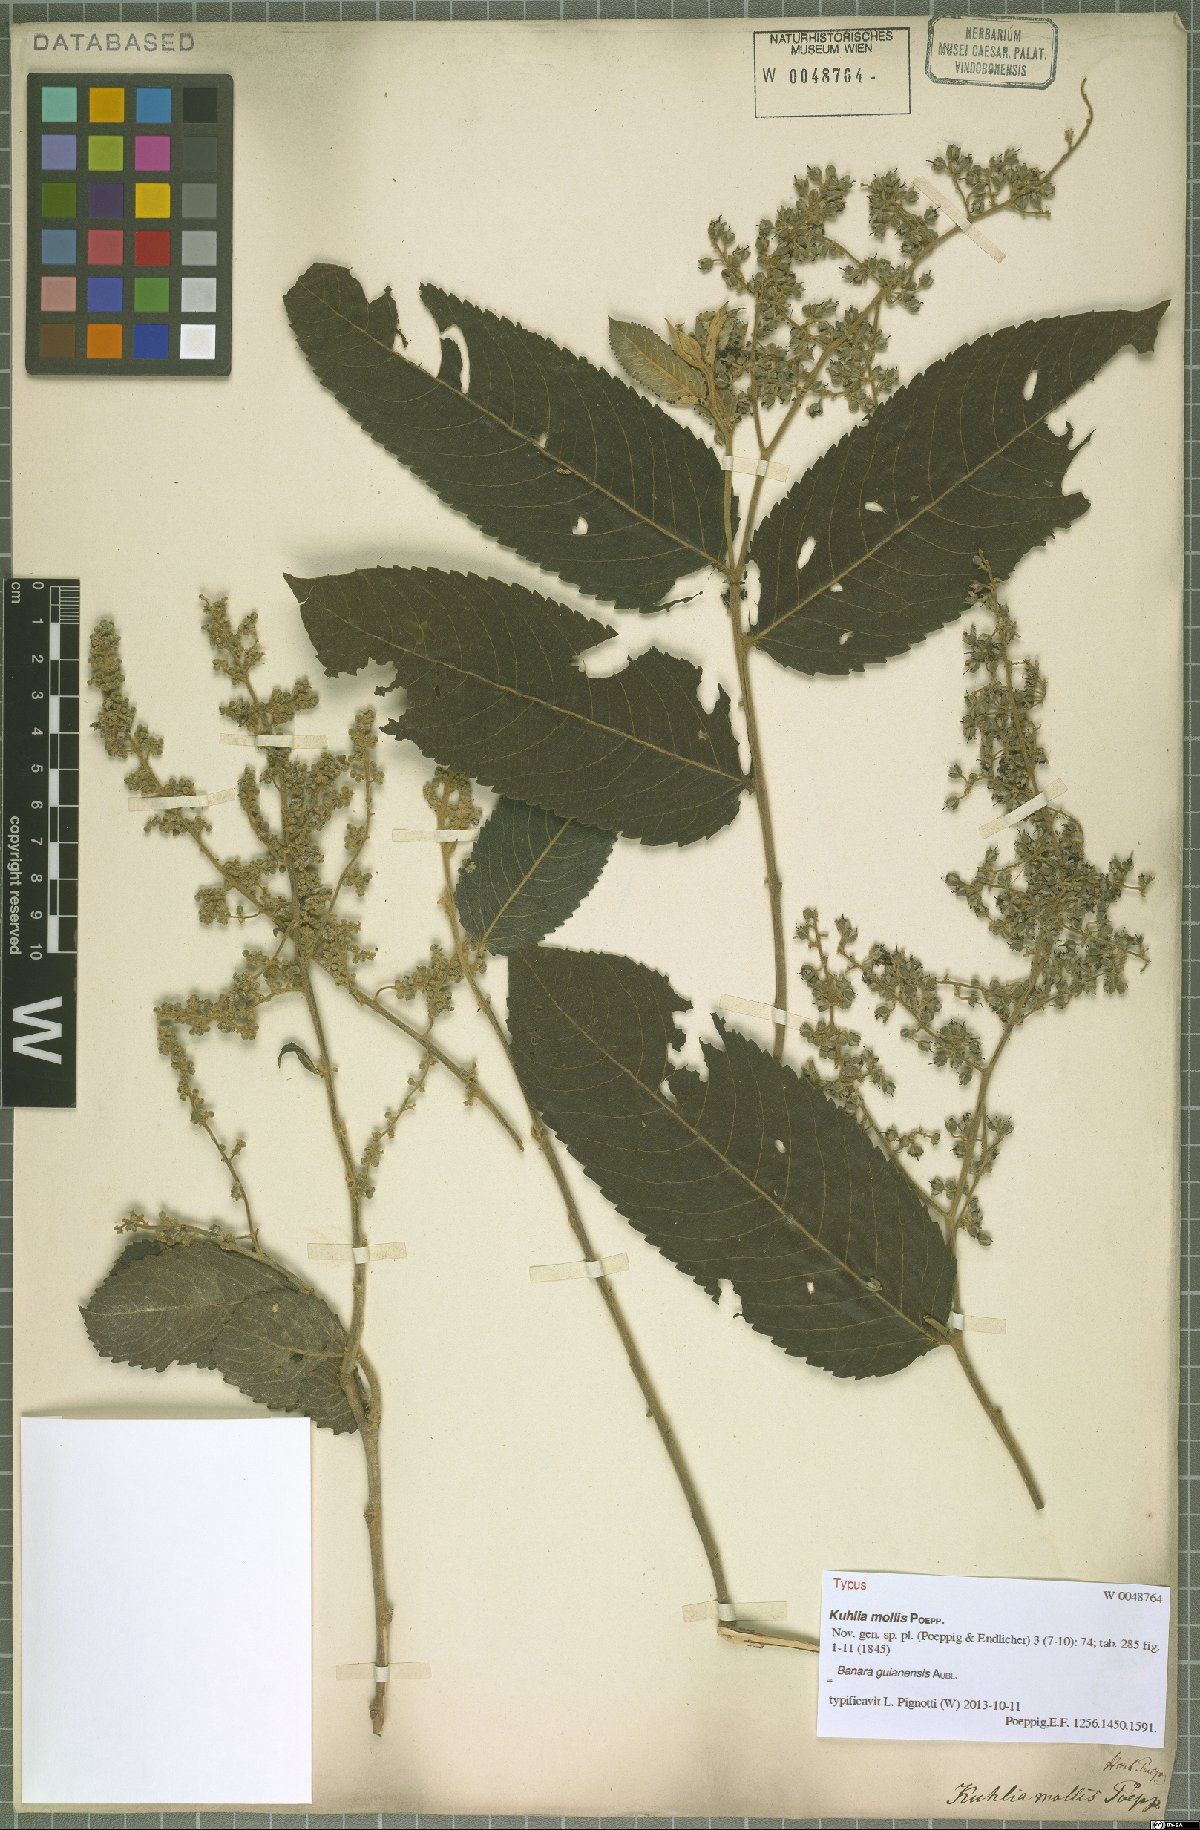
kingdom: Plantae
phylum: Tracheophyta
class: Magnoliopsida
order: Malpighiales
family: Salicaceae
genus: Banara
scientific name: Banara guianensis
